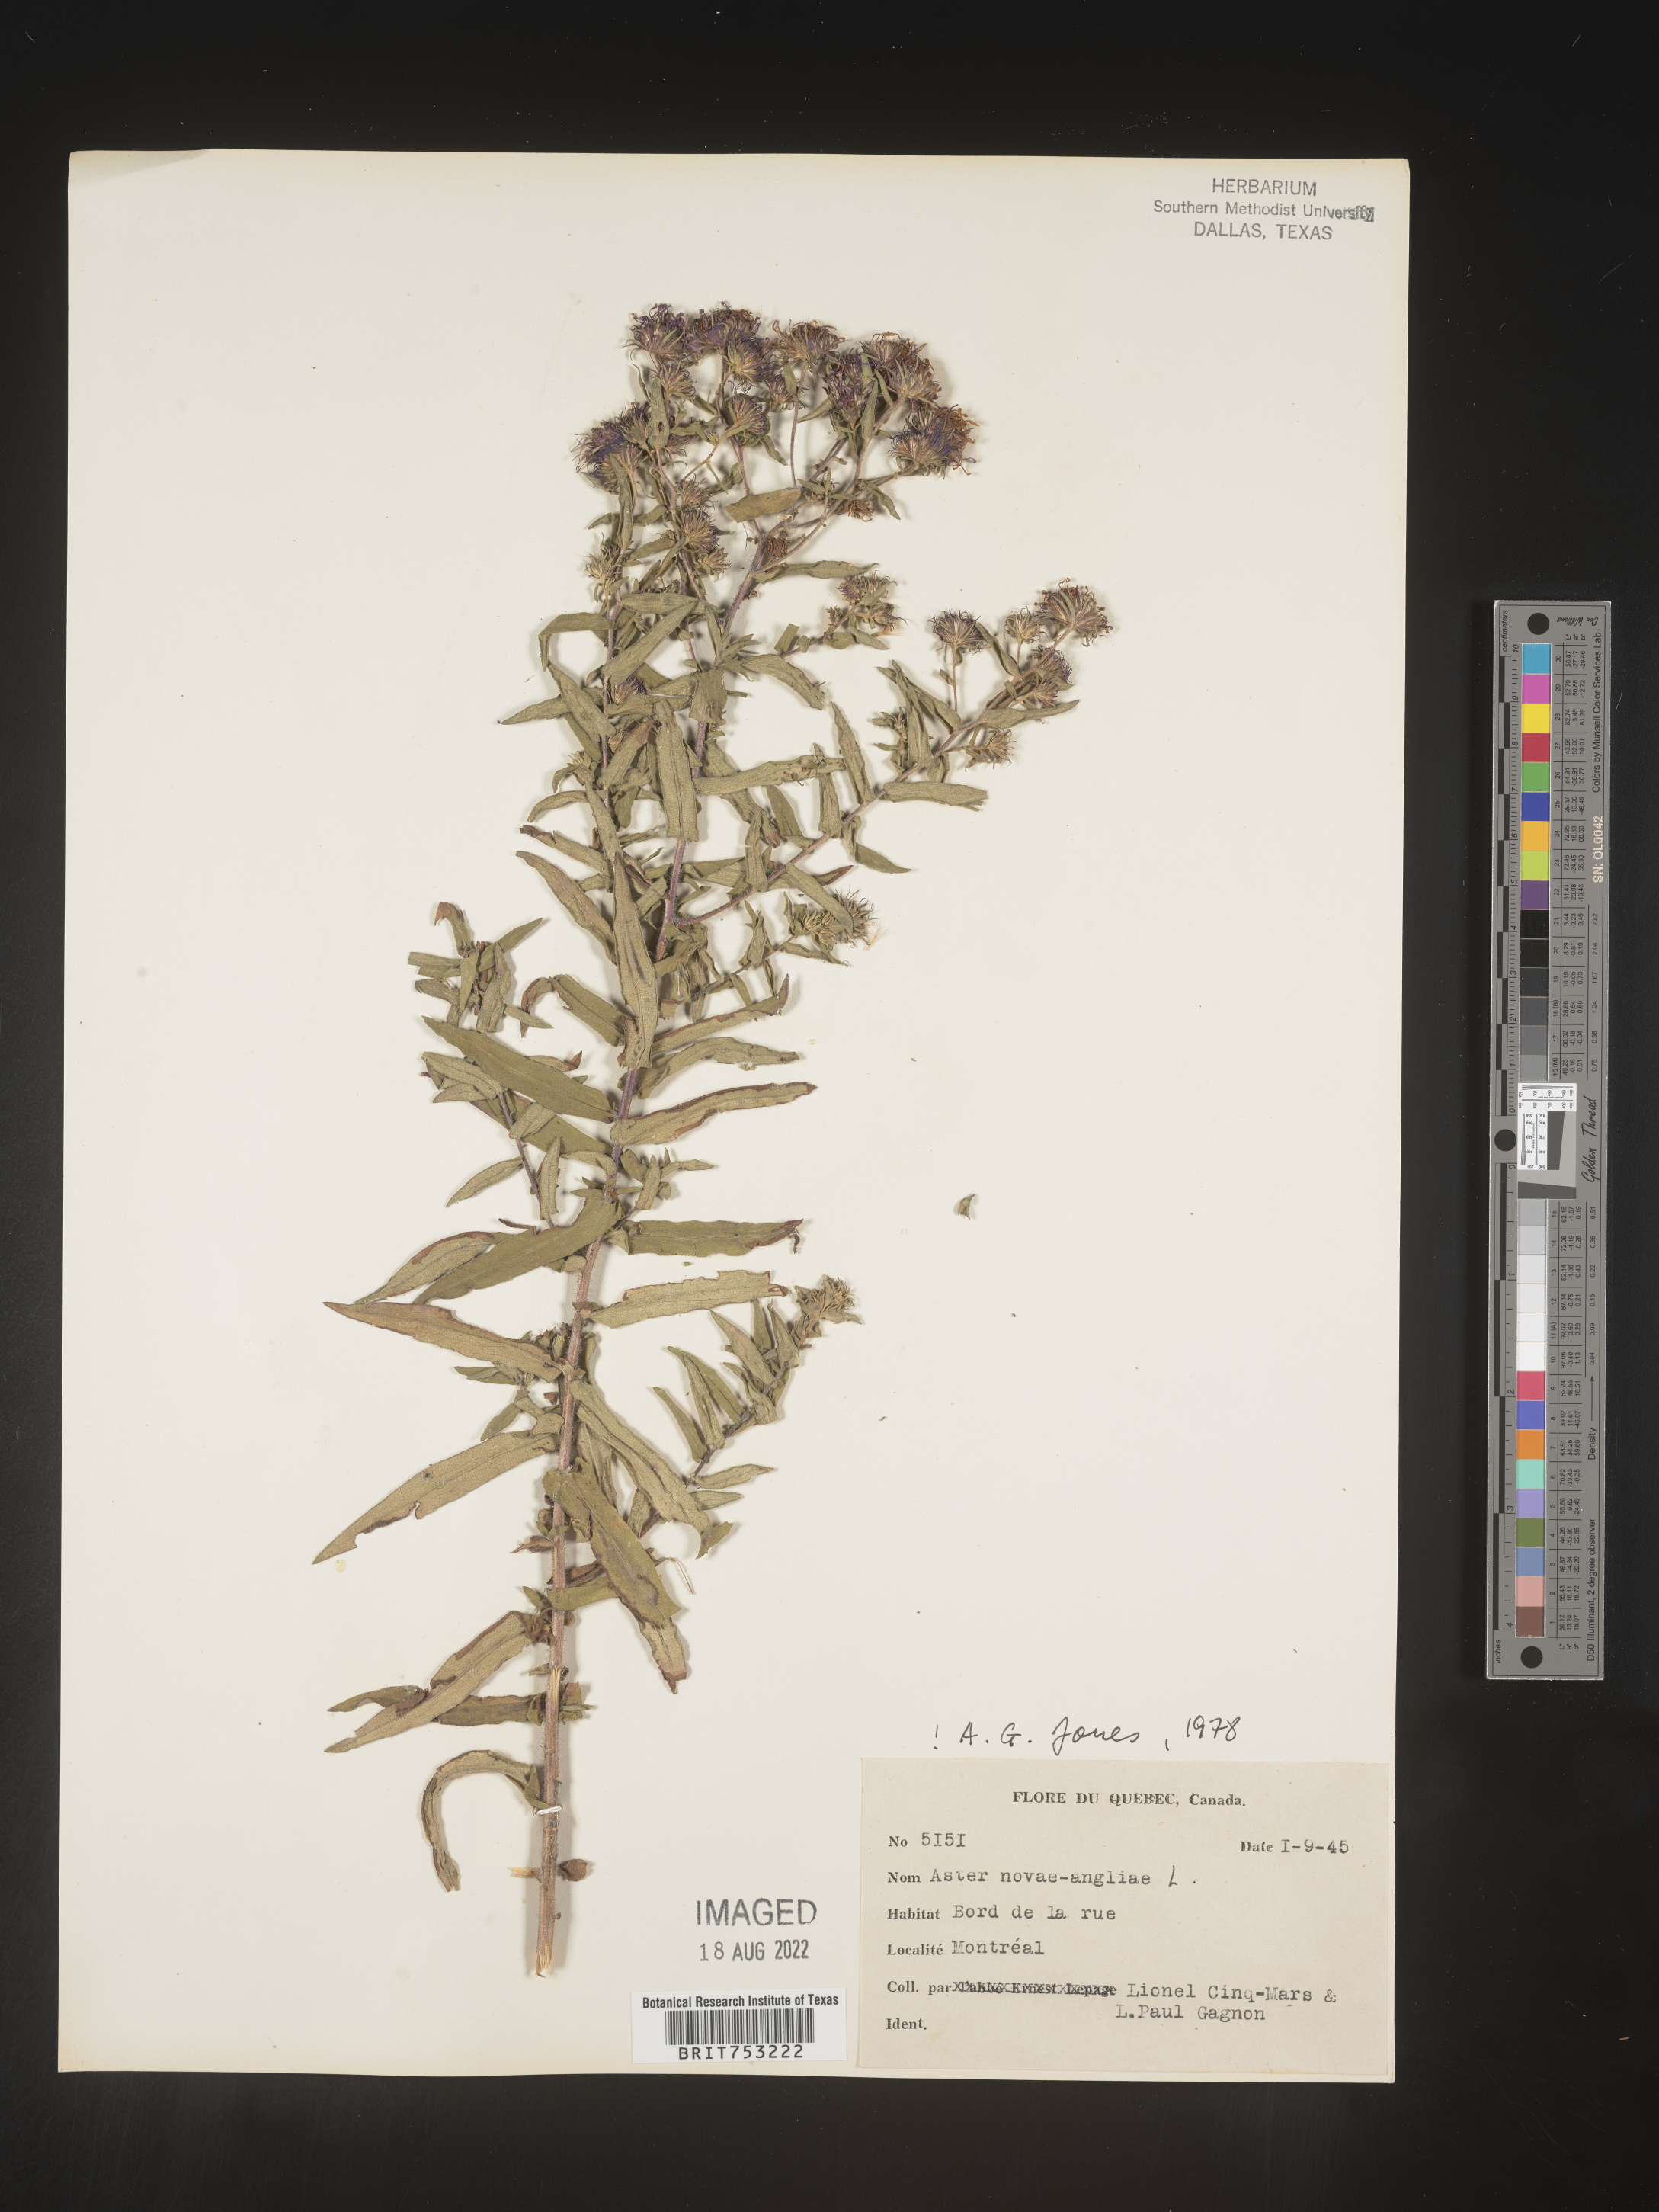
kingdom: Plantae
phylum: Tracheophyta
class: Magnoliopsida
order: Asterales
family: Asteraceae
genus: Symphyotrichum
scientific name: Symphyotrichum novi-belgii
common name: Michaelmas daisy
